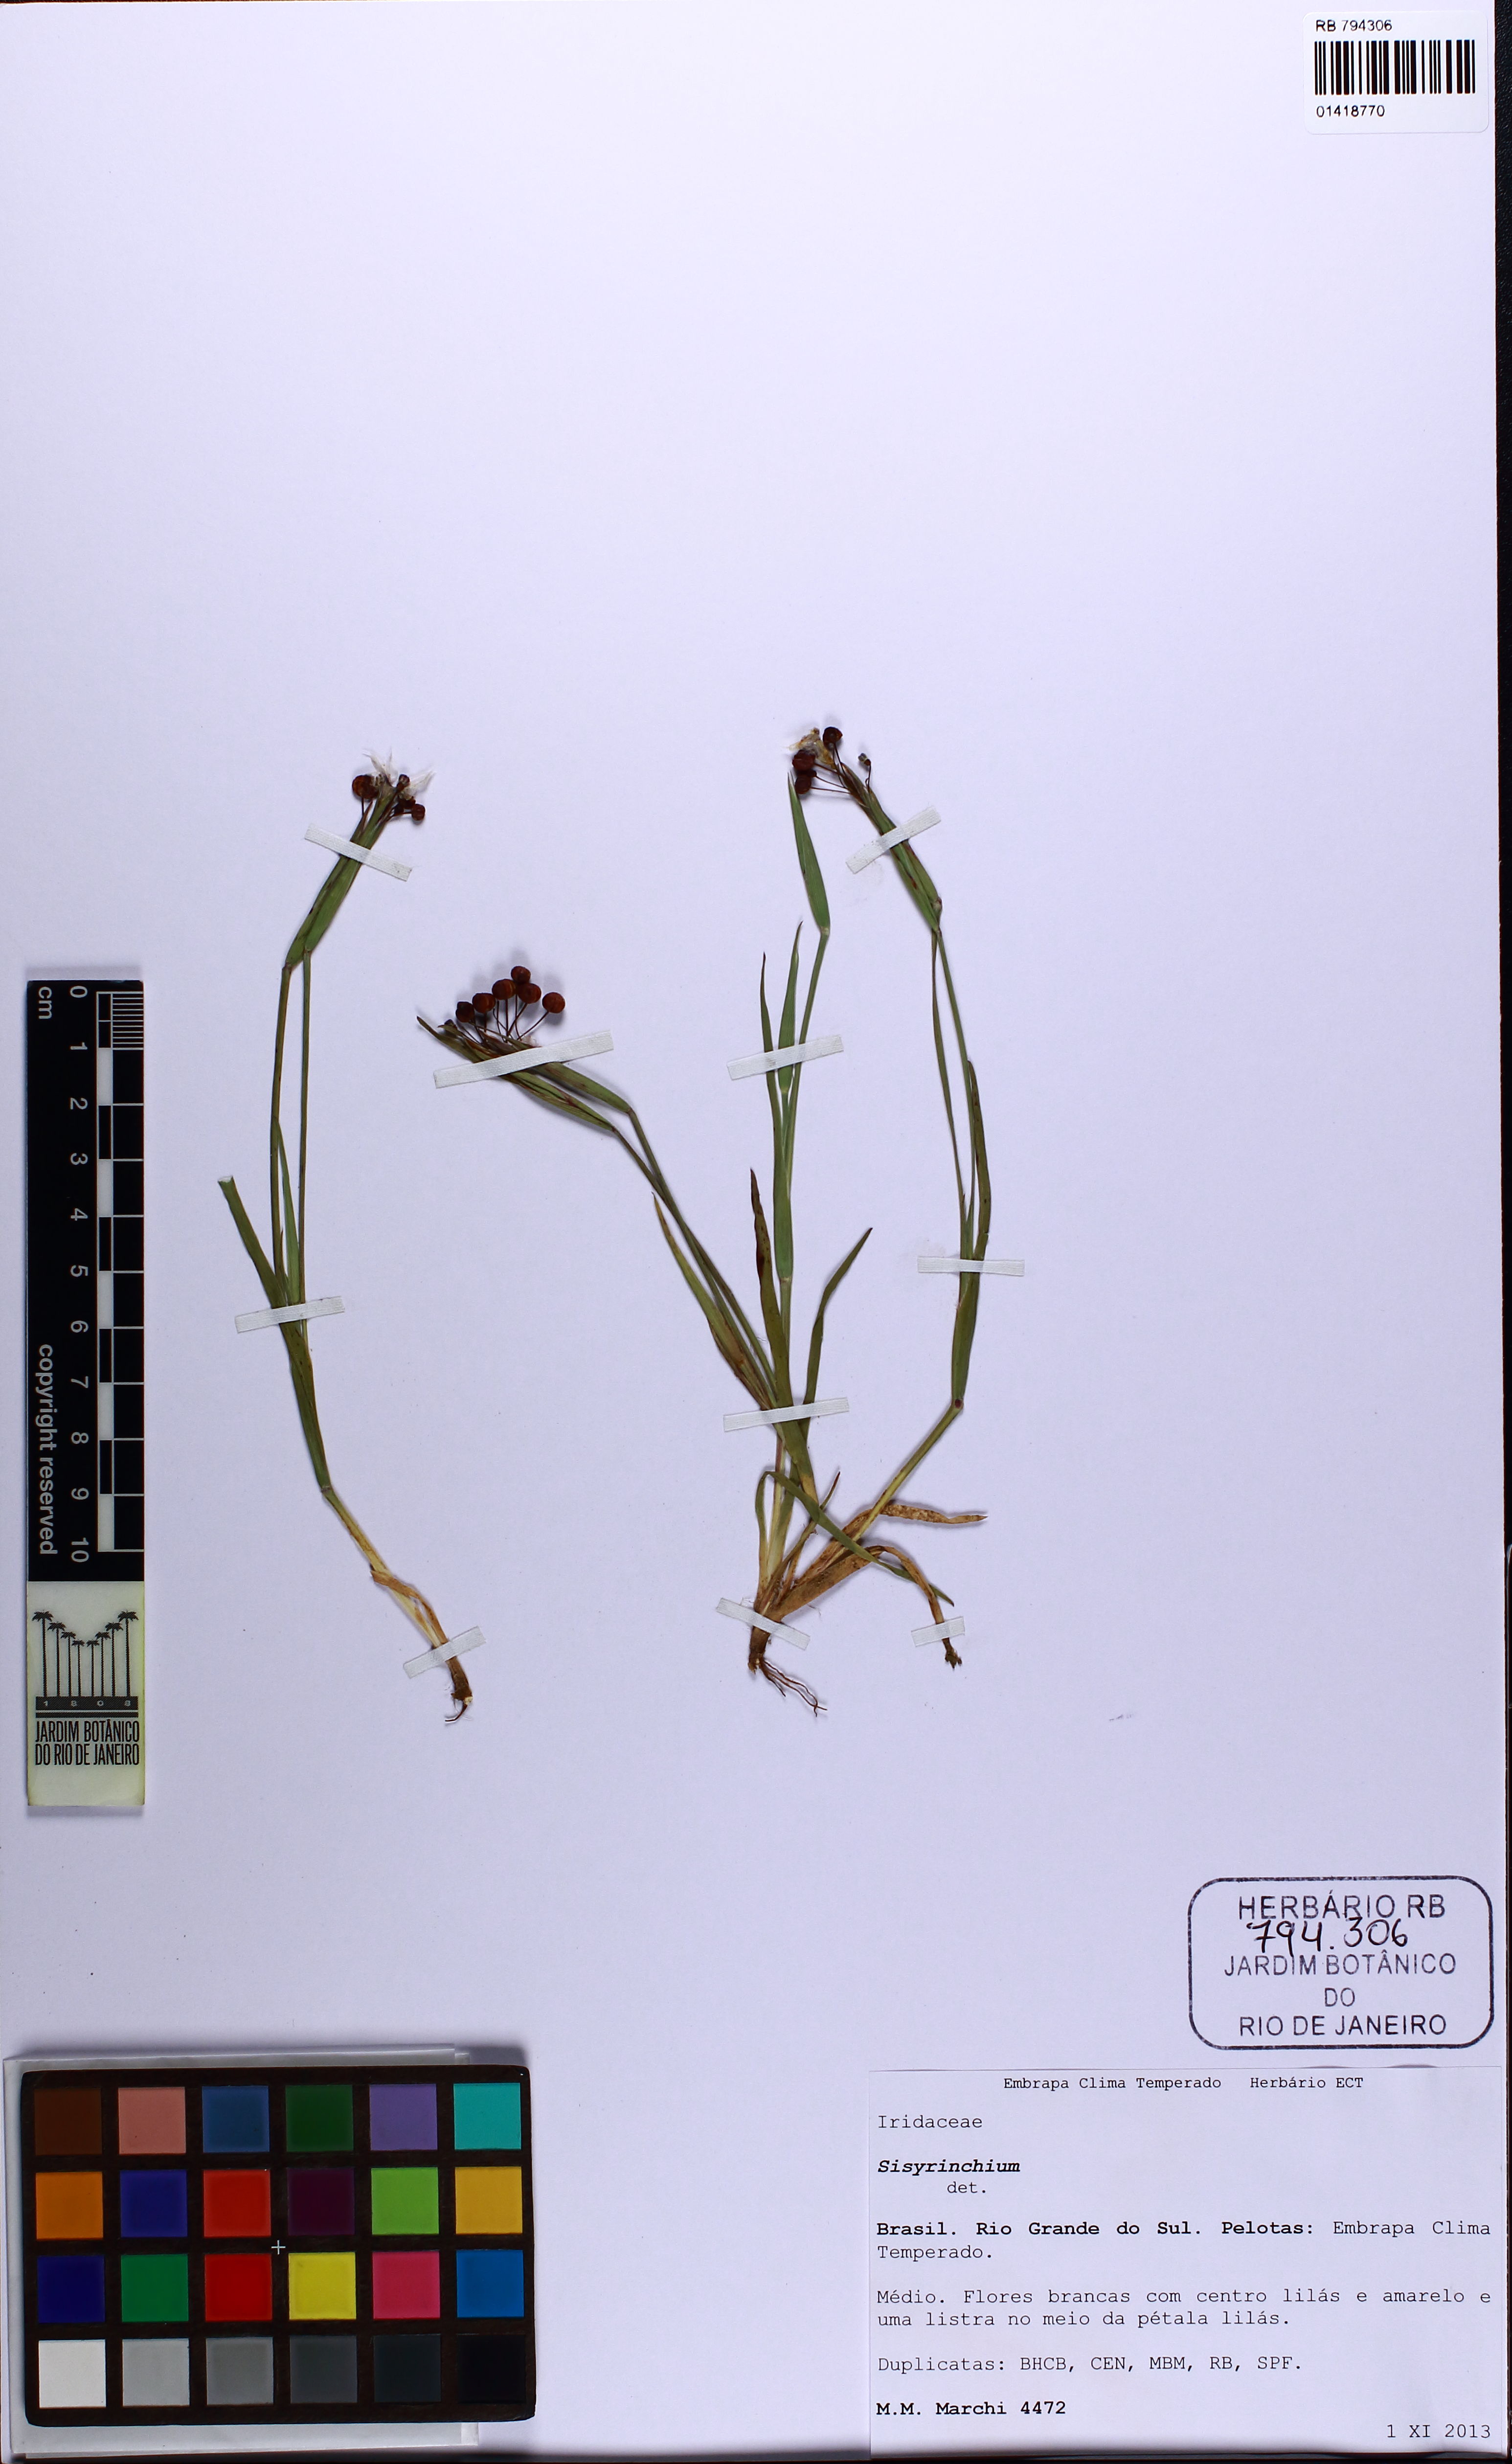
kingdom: Plantae
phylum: Tracheophyta
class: Liliopsida
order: Asparagales
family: Iridaceae
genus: Sisyrinchium
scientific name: Sisyrinchium
